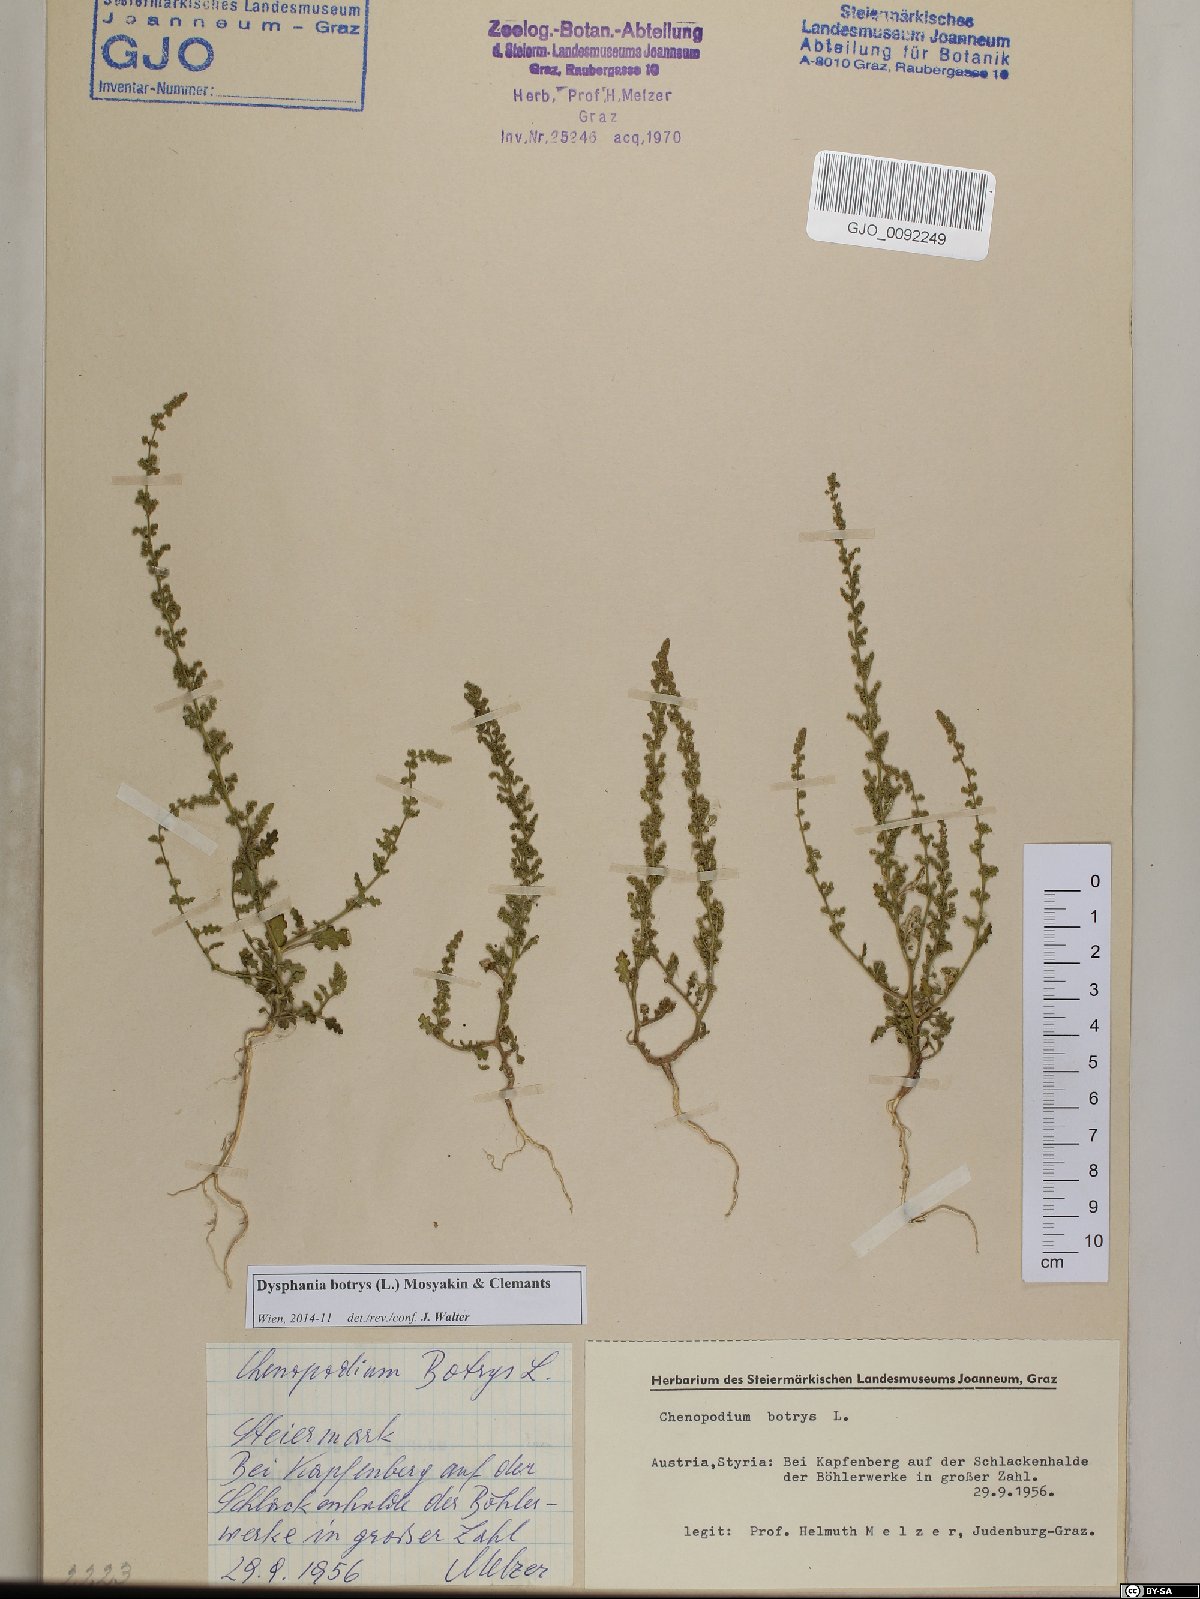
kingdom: Plantae
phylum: Tracheophyta
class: Magnoliopsida
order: Caryophyllales
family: Amaranthaceae
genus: Dysphania
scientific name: Dysphania botrys
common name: Feather-geranium
